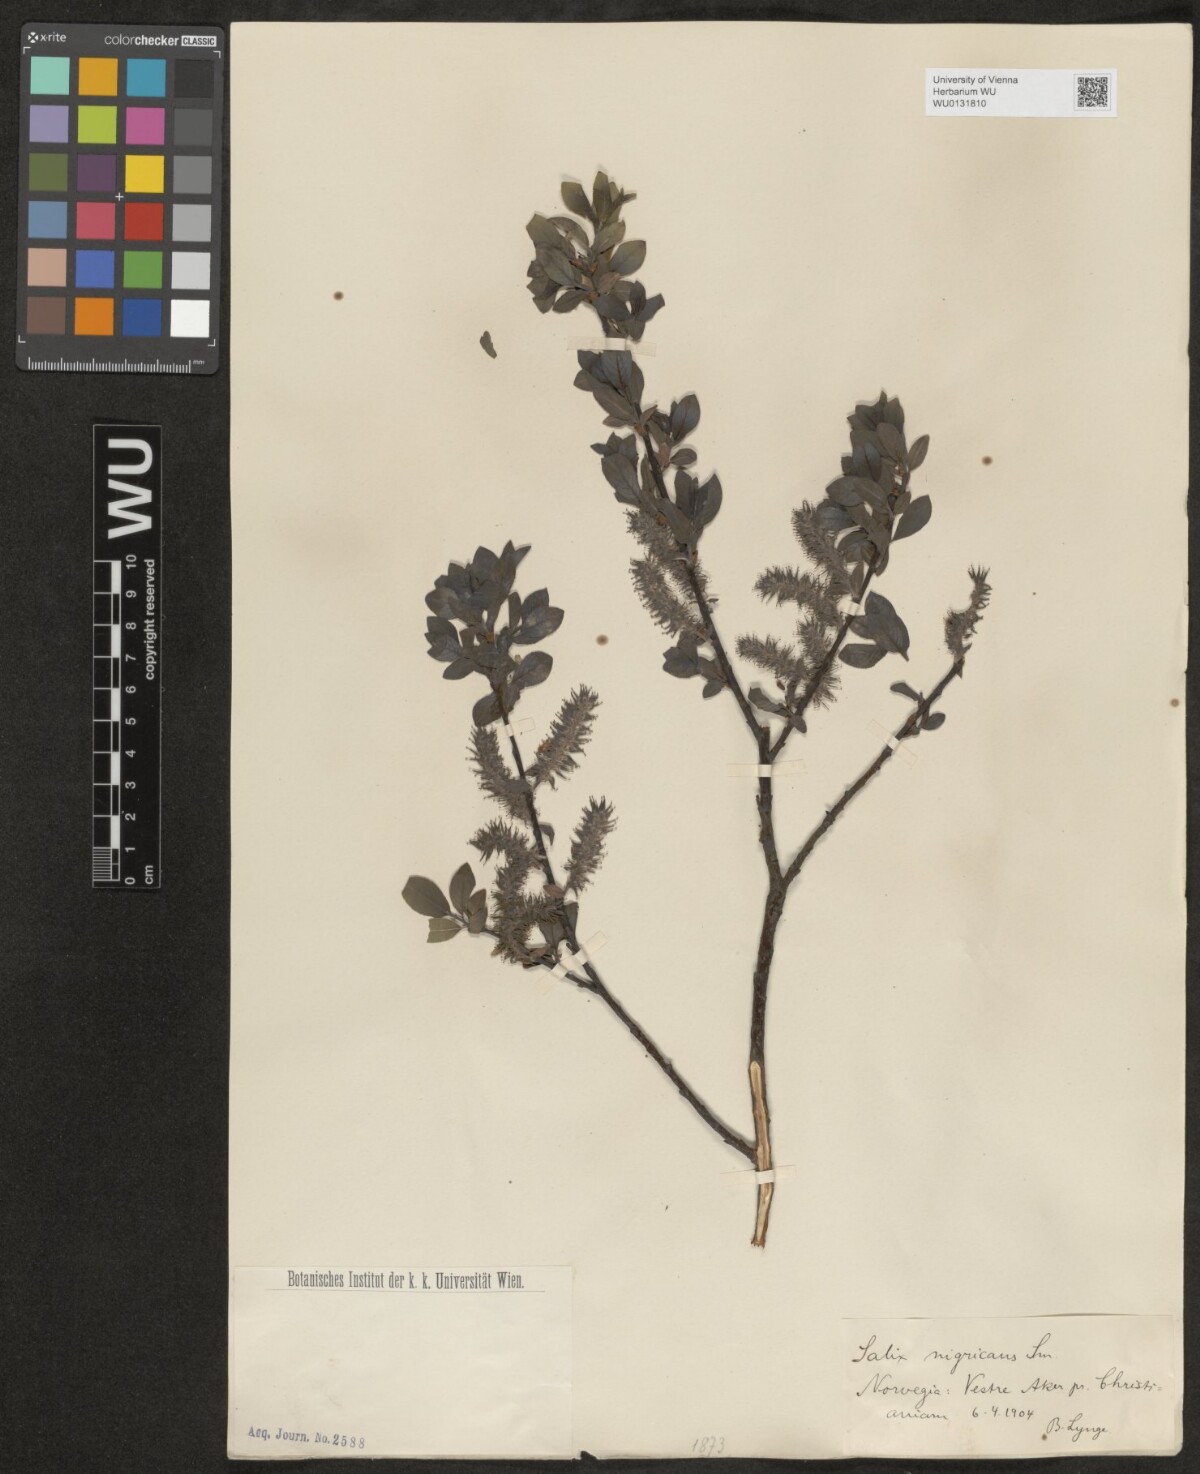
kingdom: Plantae
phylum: Tracheophyta
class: Magnoliopsida
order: Malpighiales
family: Salicaceae
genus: Salix
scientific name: Salix myrsinifolia
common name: Dark-leaved willow
